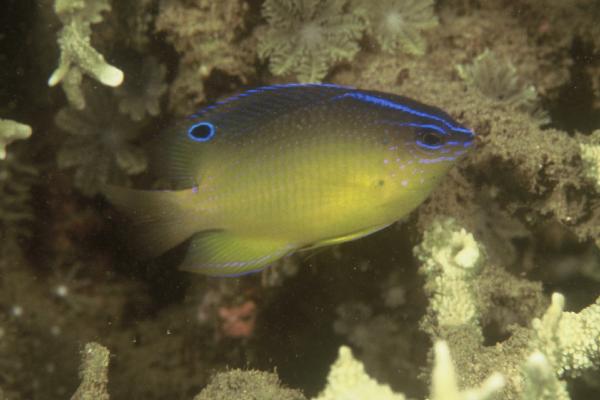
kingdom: Animalia
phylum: Chordata
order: Perciformes
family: Pomacentridae
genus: Pomacentrus
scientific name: Pomacentrus simsiang
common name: Blueback damsel
